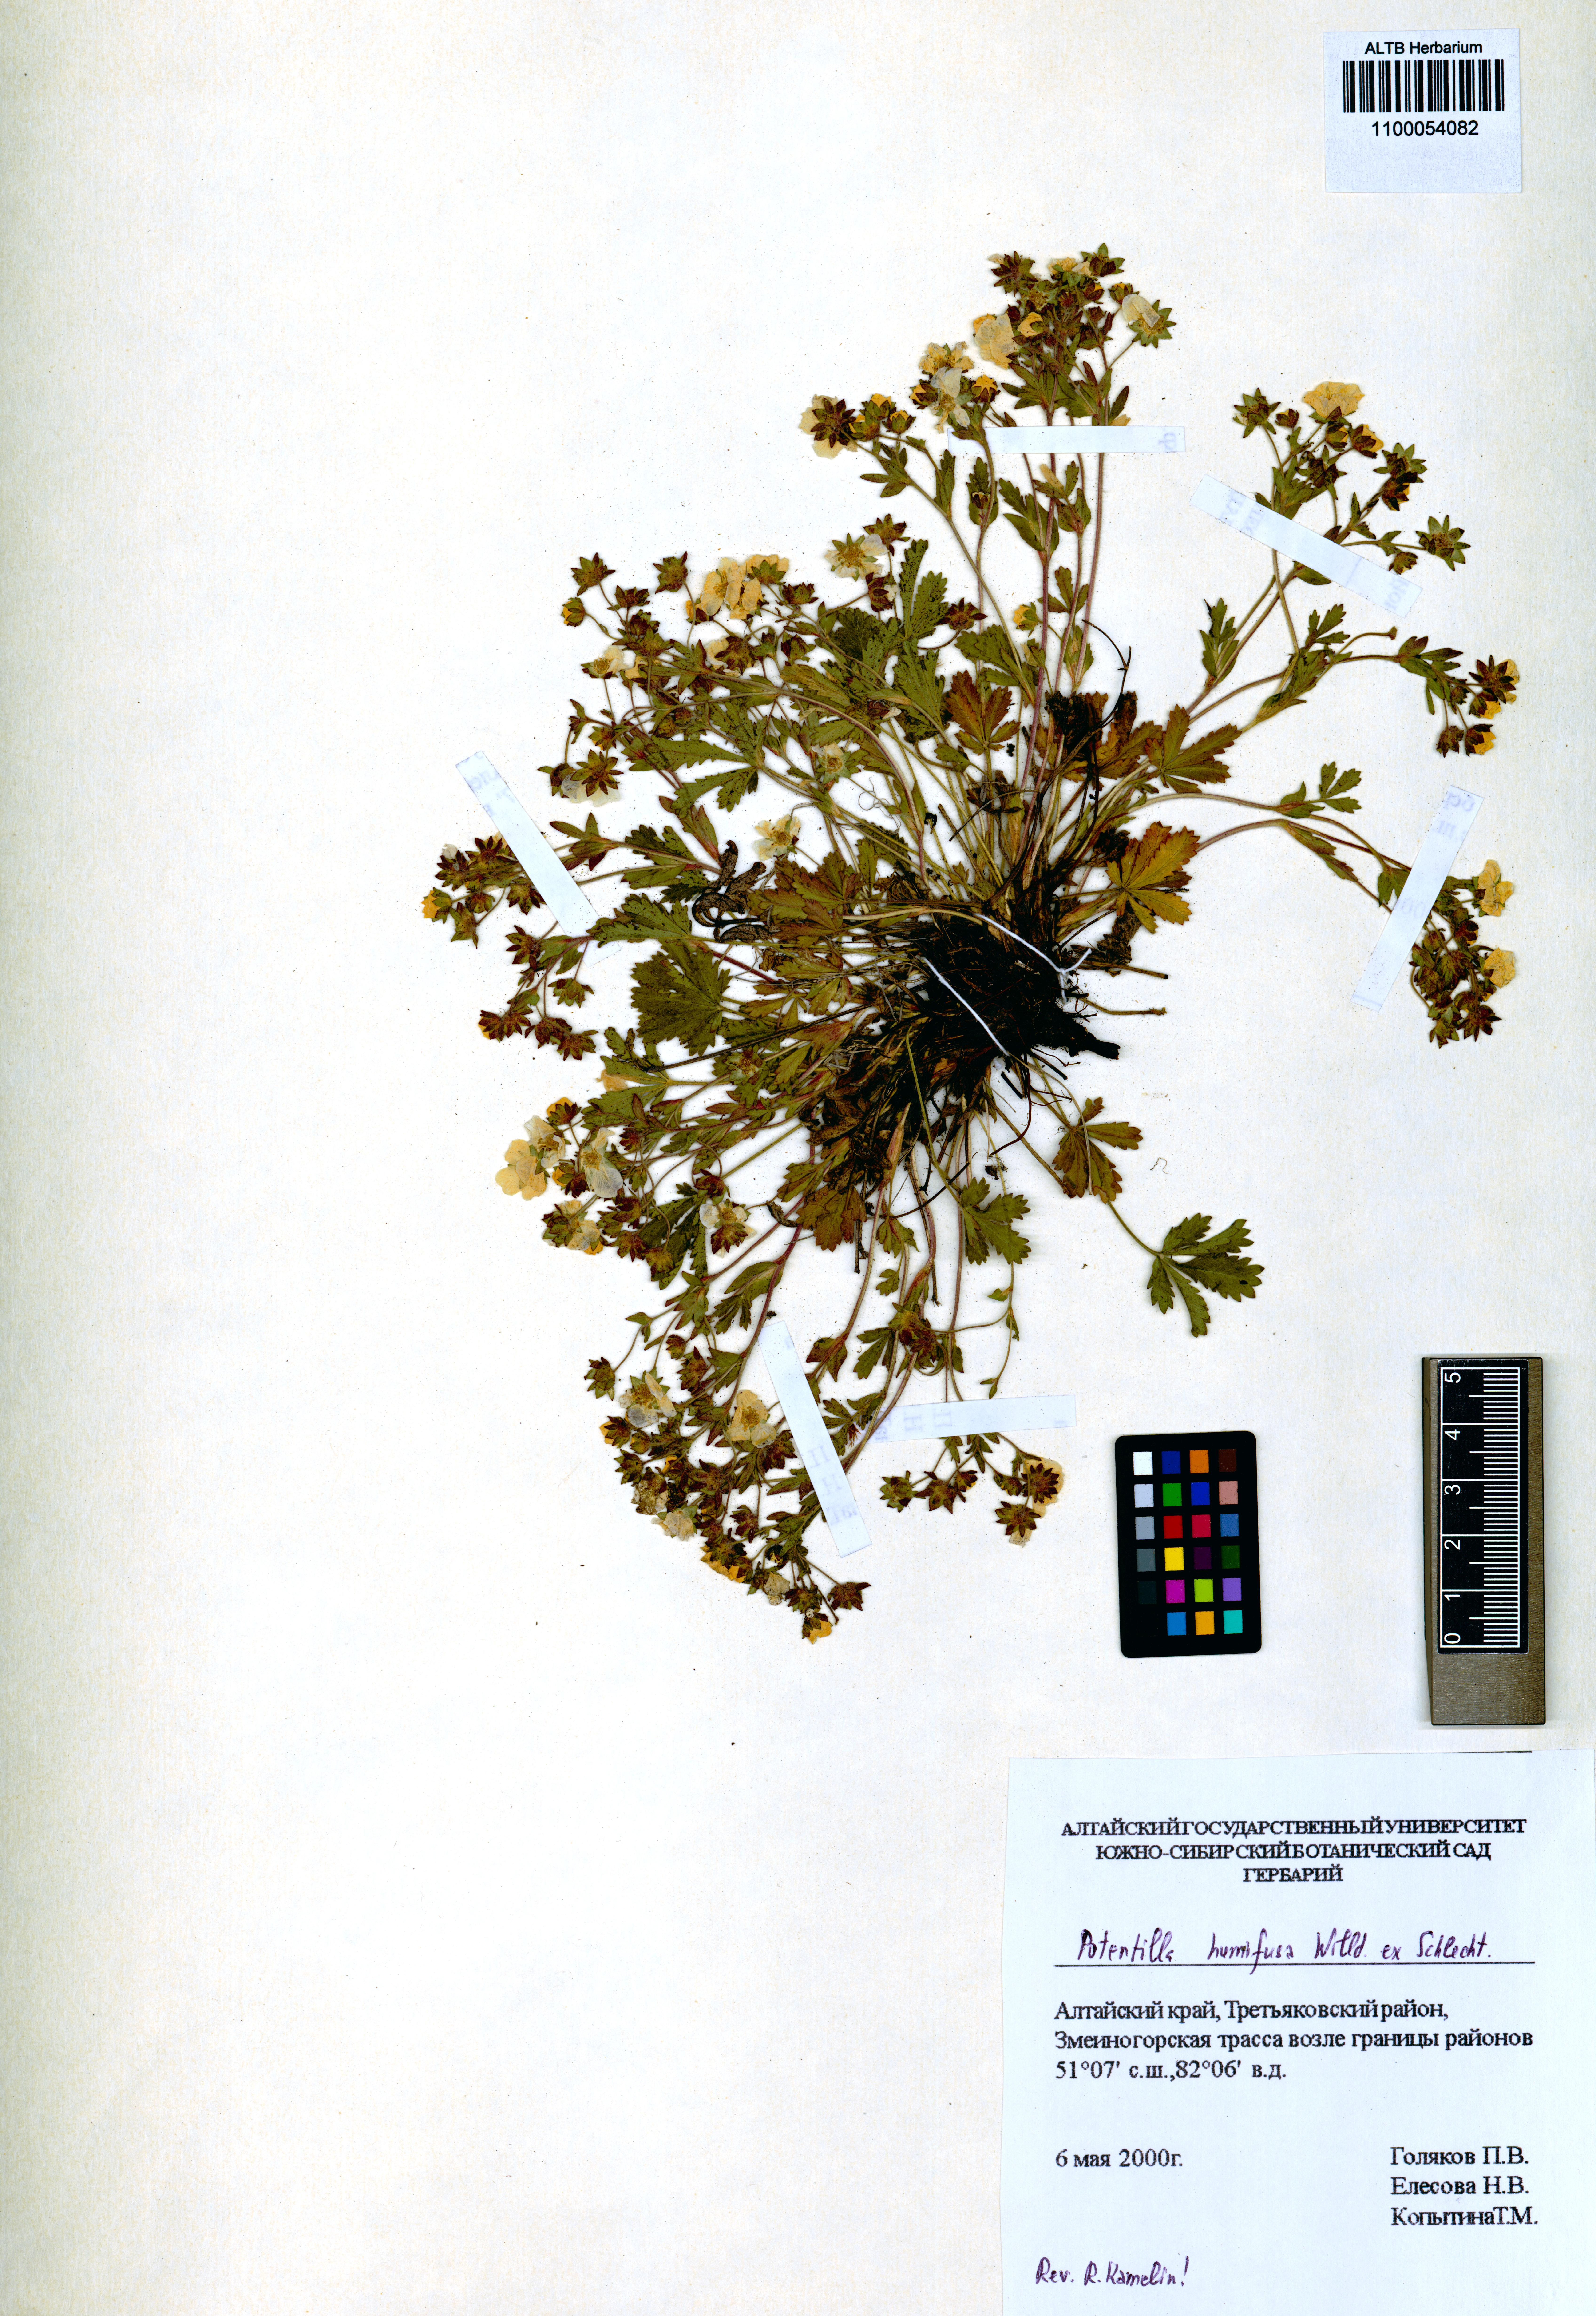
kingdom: Plantae
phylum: Tracheophyta
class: Magnoliopsida
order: Rosales
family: Rosaceae
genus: Potentilla
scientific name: Potentilla humifusa
